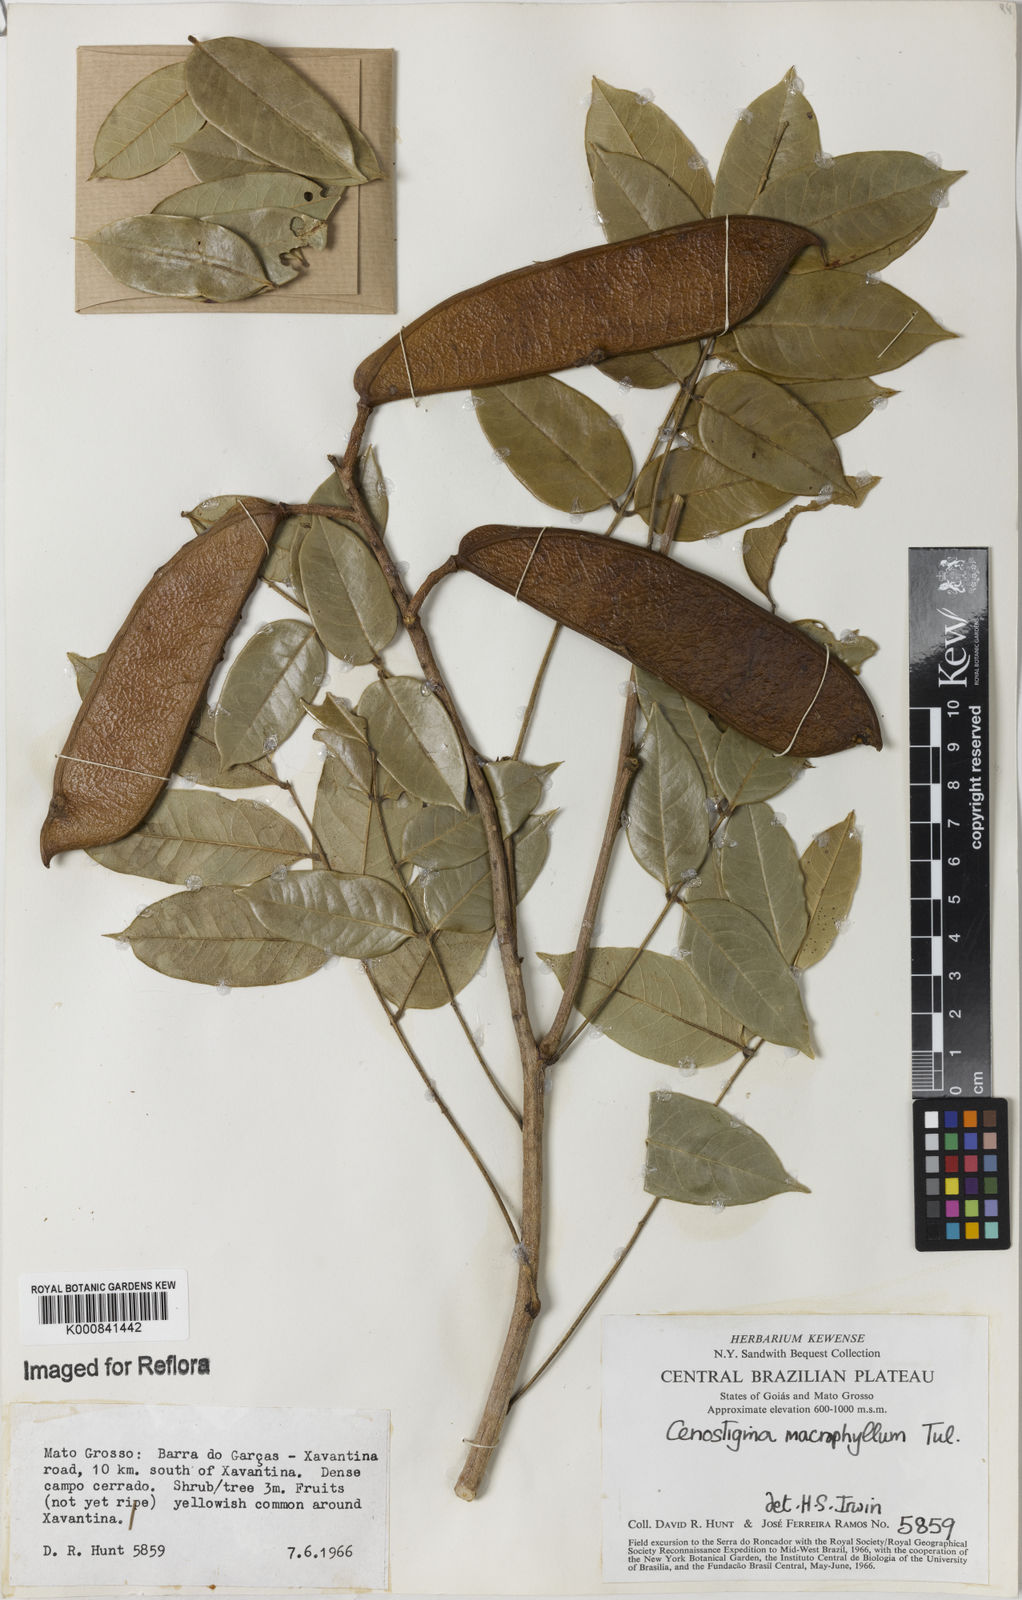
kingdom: Plantae
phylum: Tracheophyta
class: Magnoliopsida
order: Fabales
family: Fabaceae
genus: Cenostigma
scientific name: Cenostigma macrophyllum
